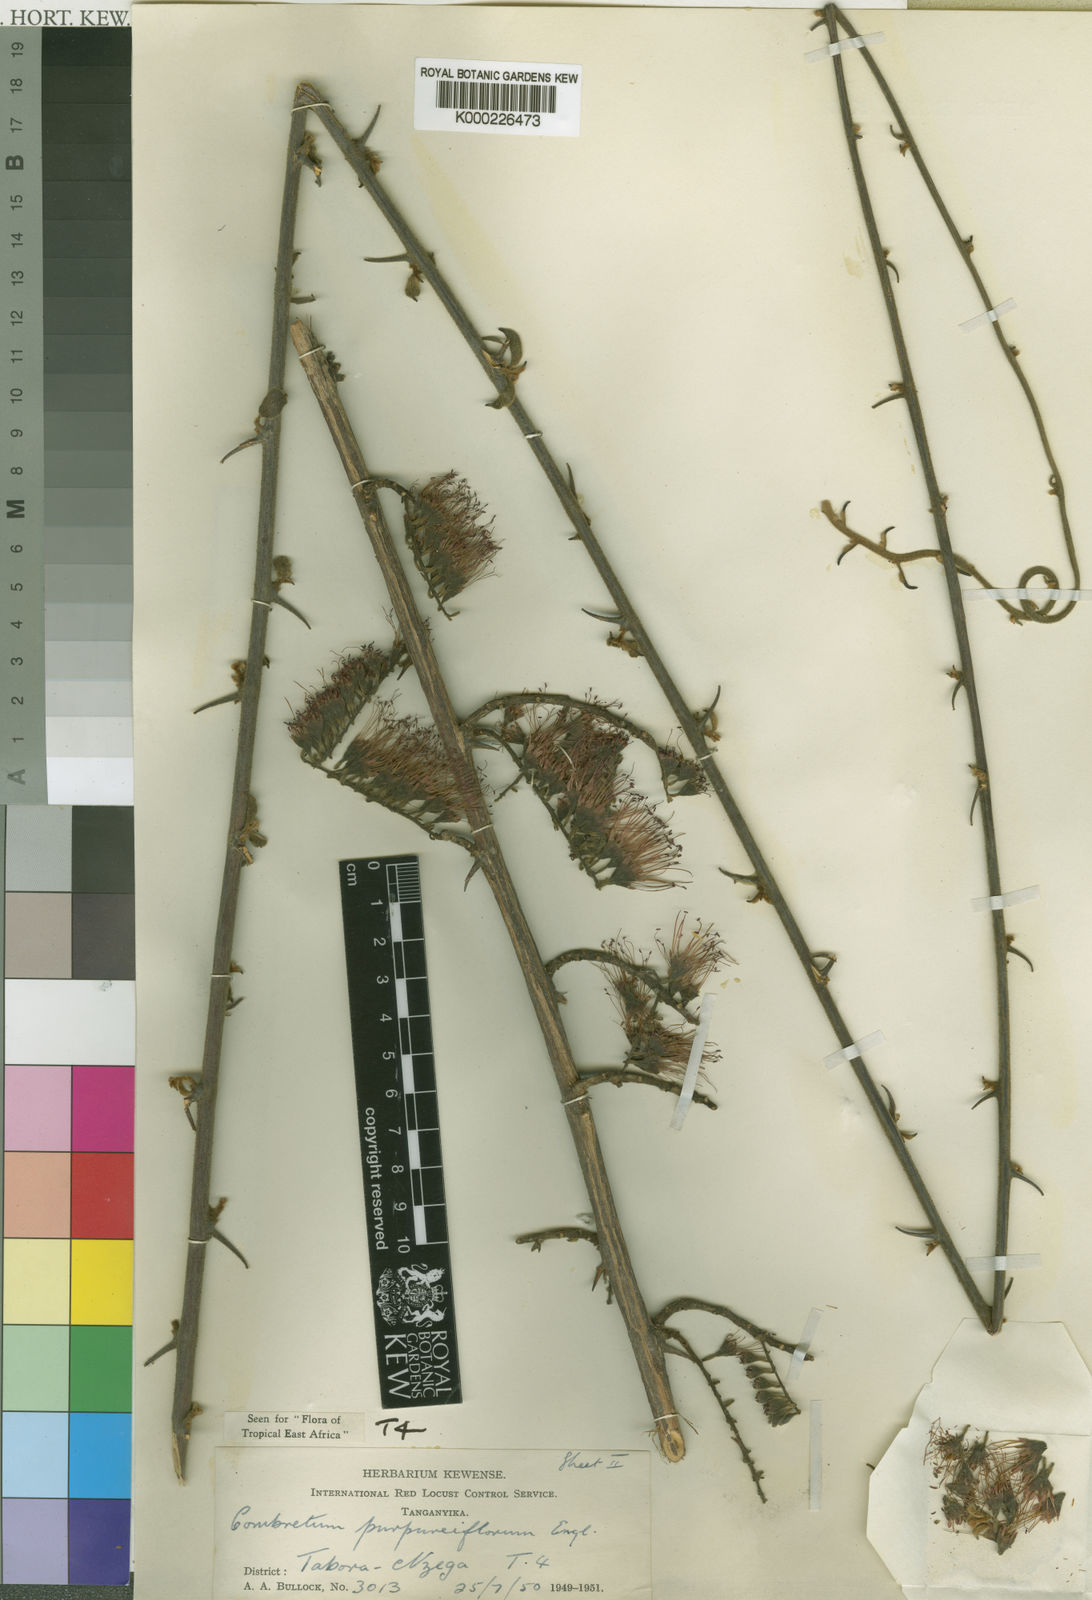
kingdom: Plantae
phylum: Tracheophyta
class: Magnoliopsida
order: Myrtales
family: Combretaceae
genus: Combretum
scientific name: Combretum purpureiflorum
